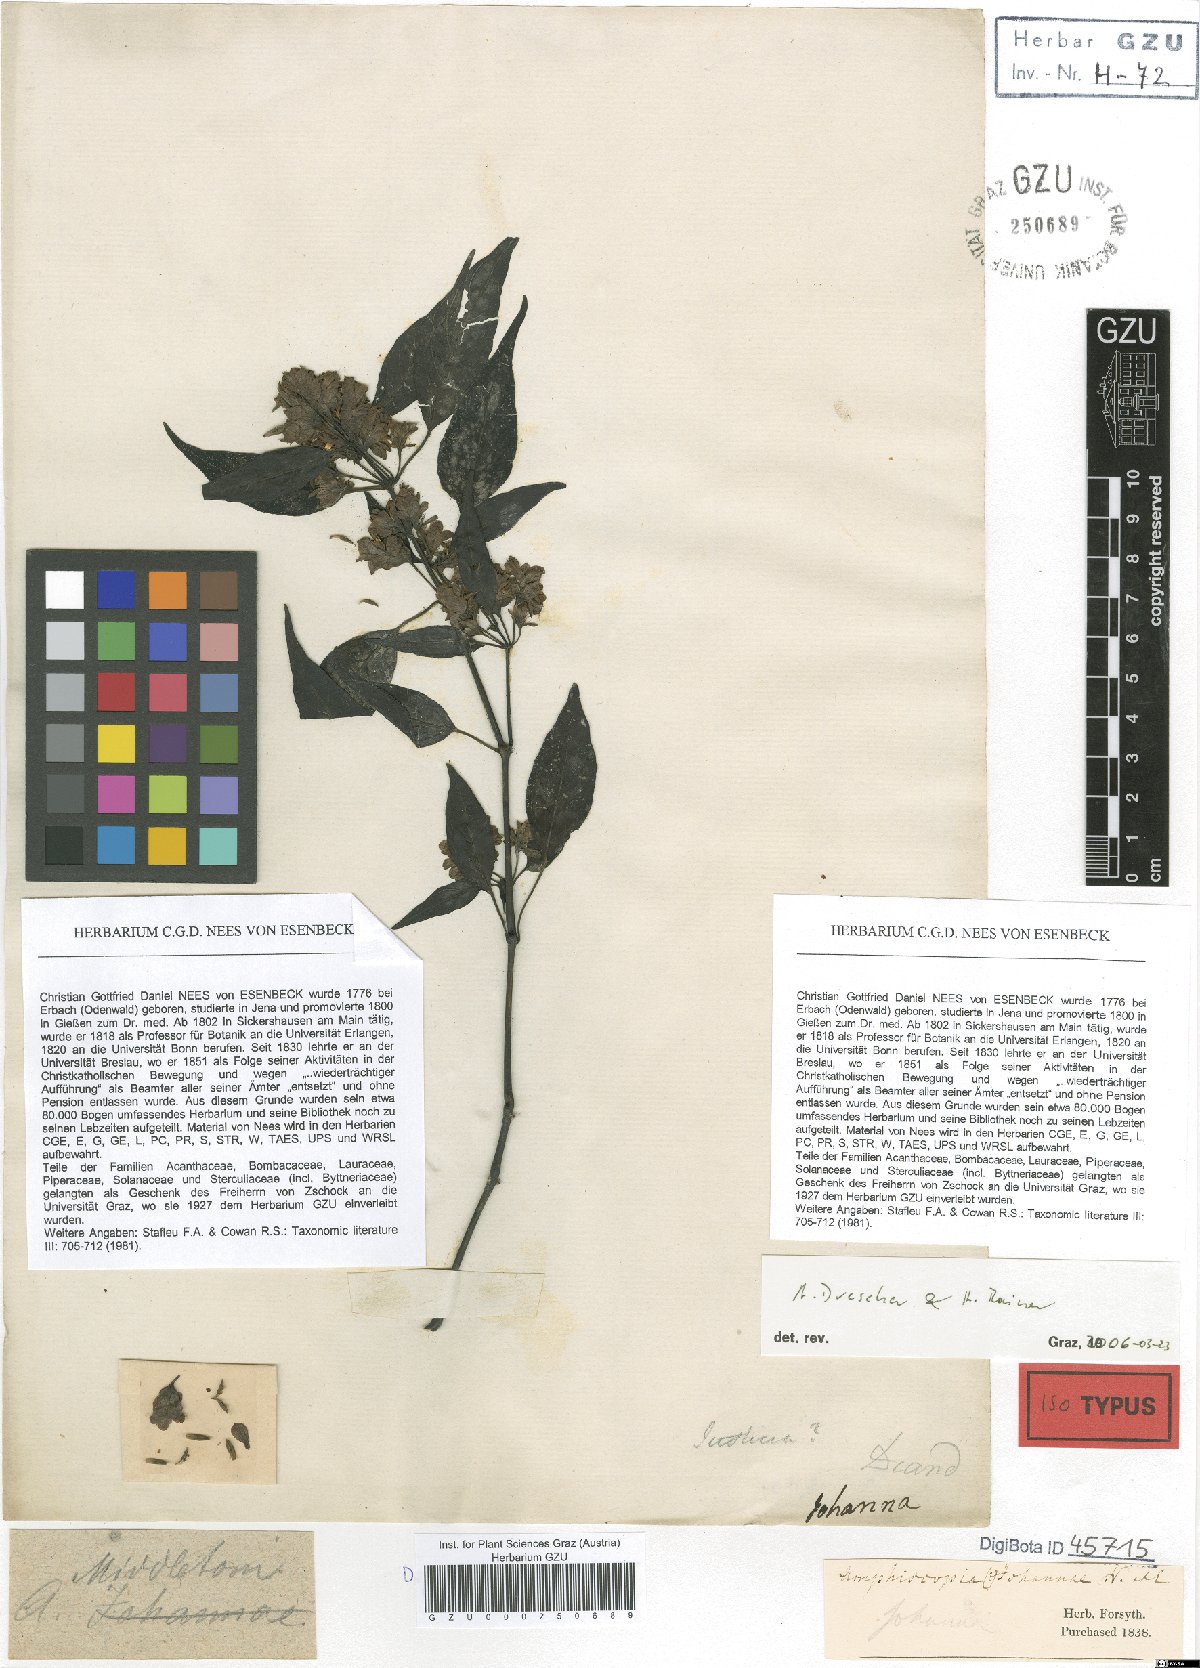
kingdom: Plantae
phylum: Tracheophyta
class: Magnoliopsida
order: Lamiales
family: Acanthaceae
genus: Dianthera
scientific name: Dianthera Amphiscopia middletonii
